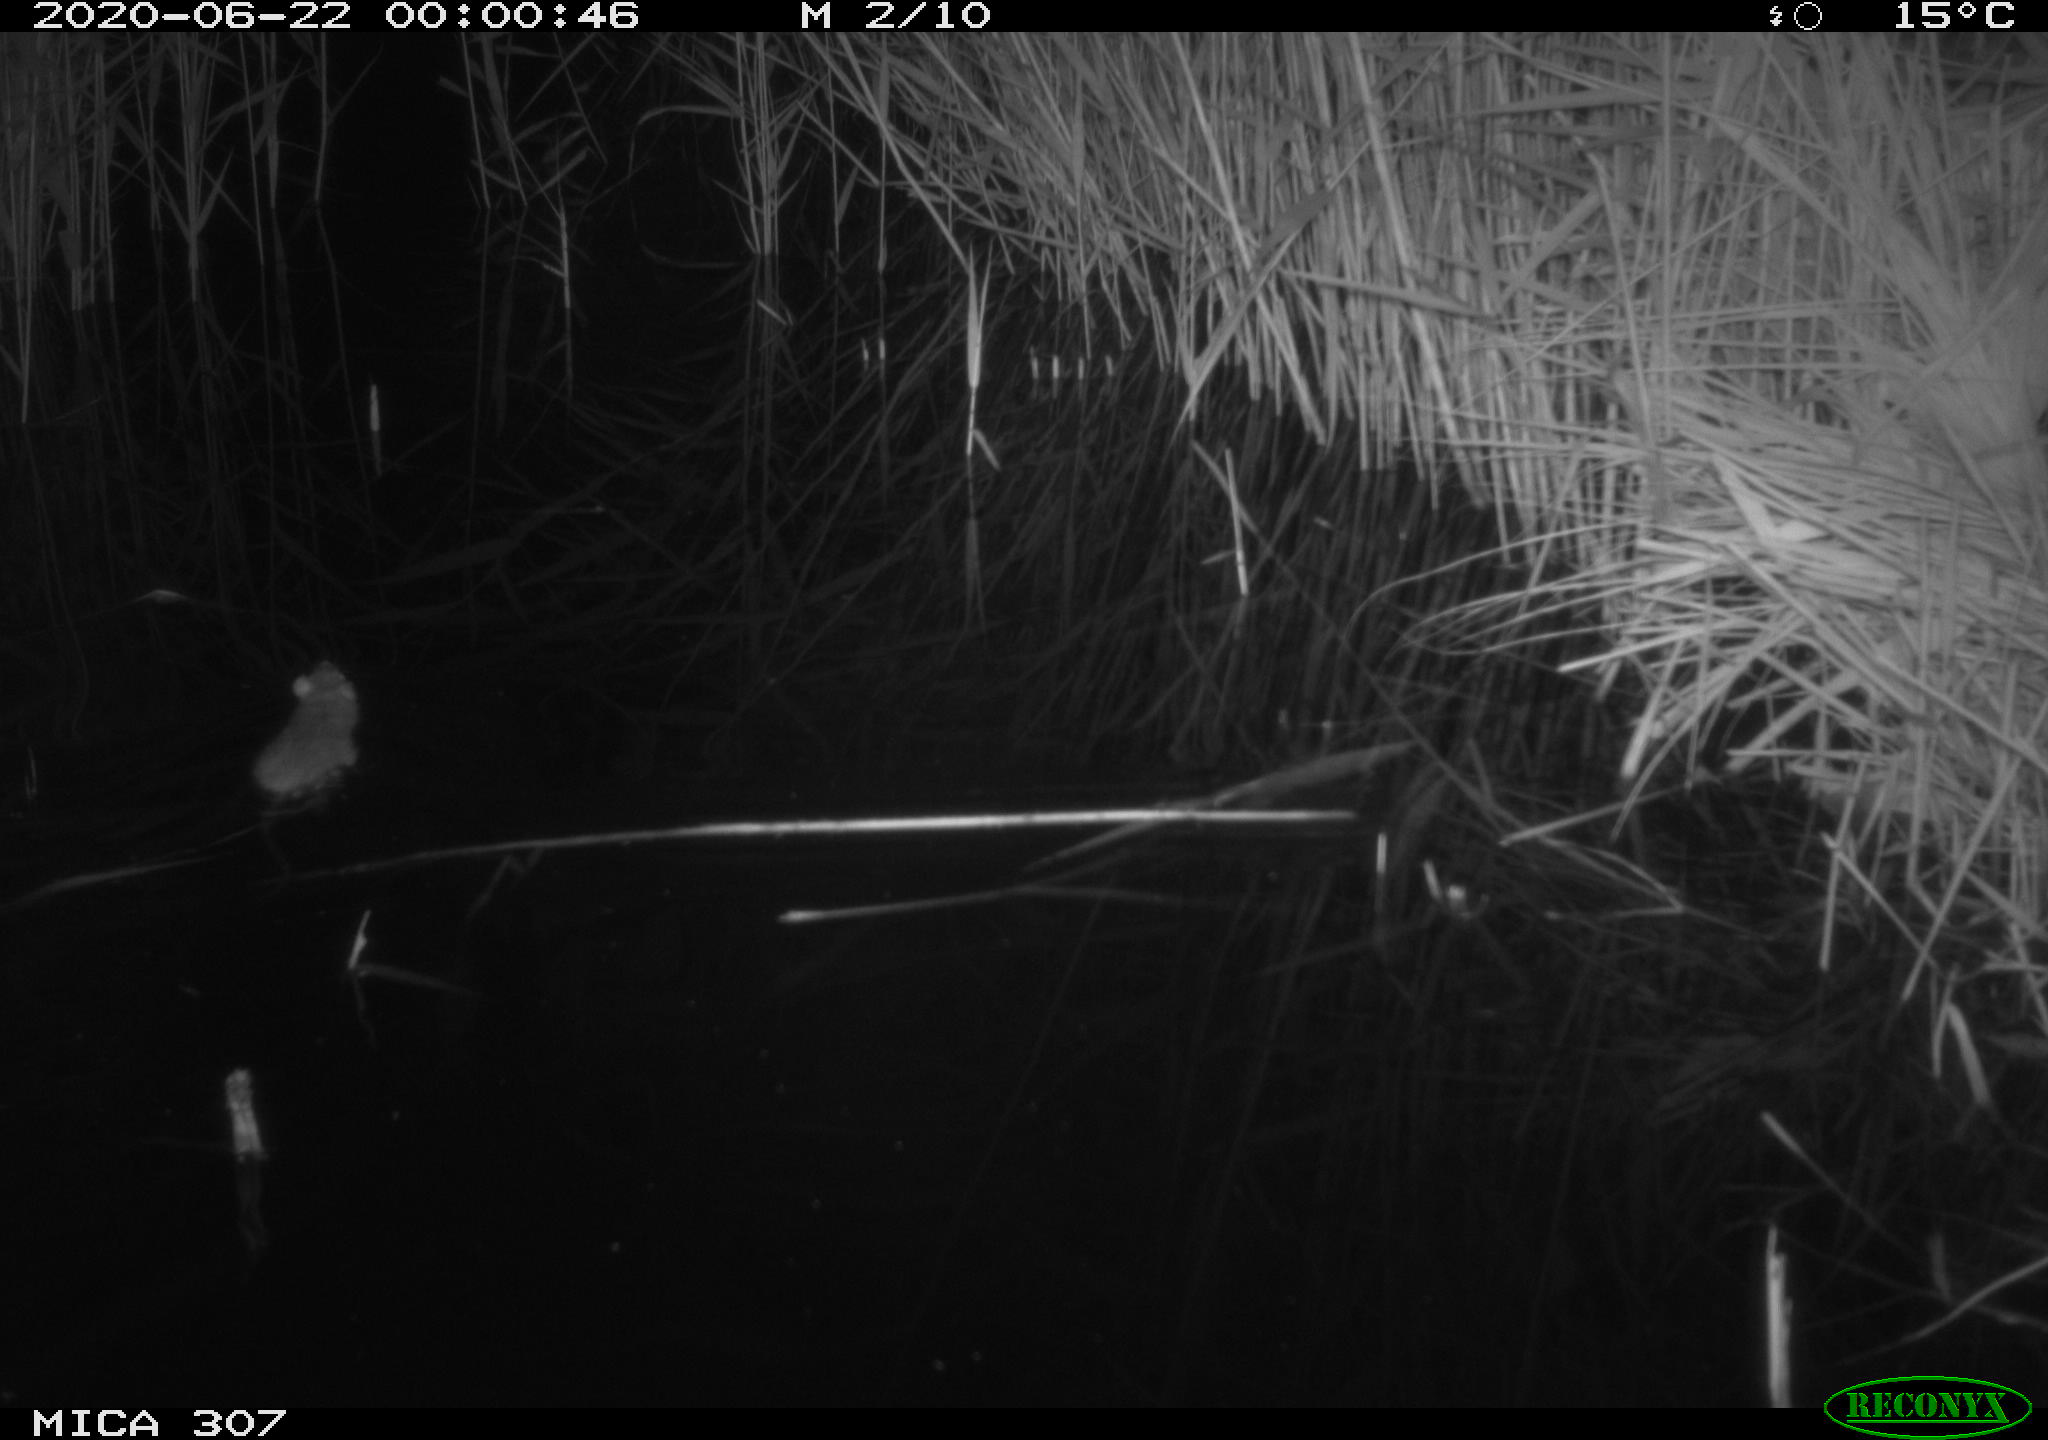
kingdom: Animalia
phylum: Chordata
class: Mammalia
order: Rodentia
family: Muridae
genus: Rattus
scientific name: Rattus norvegicus
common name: Brown rat
